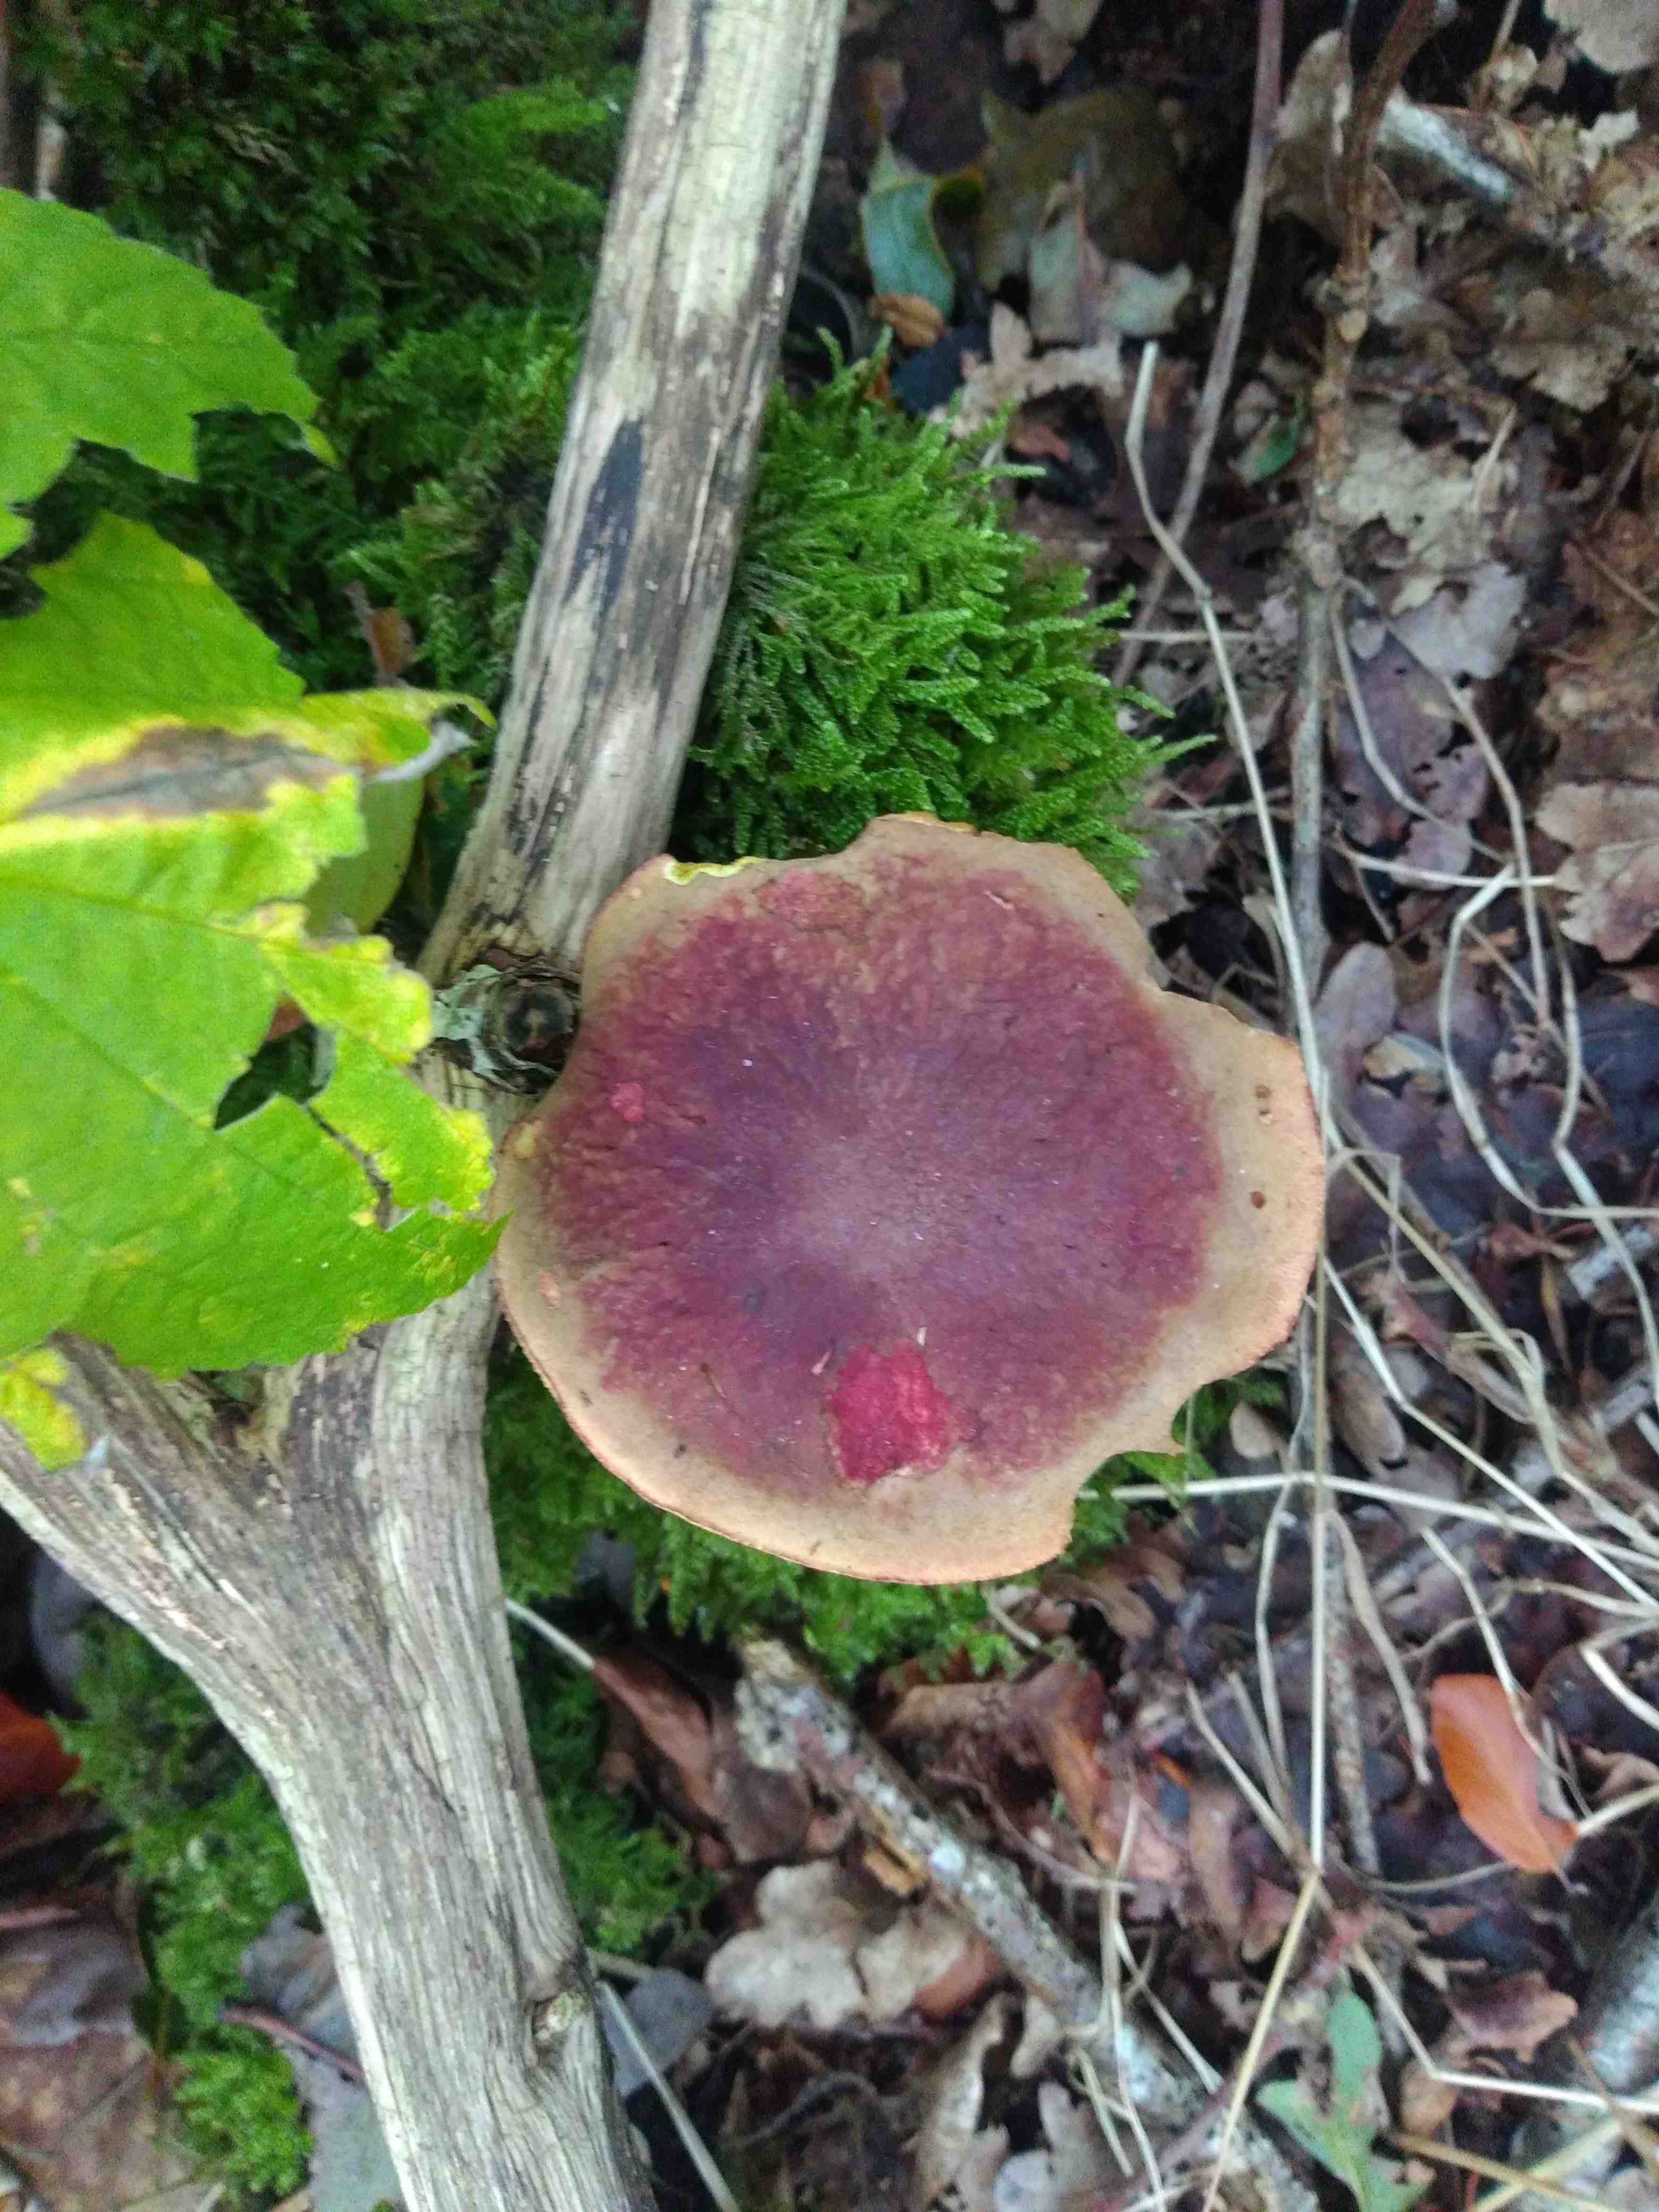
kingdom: Fungi
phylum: Basidiomycota
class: Agaricomycetes
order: Boletales
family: Boletaceae
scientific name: Boletaceae
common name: rørhatfamilien
